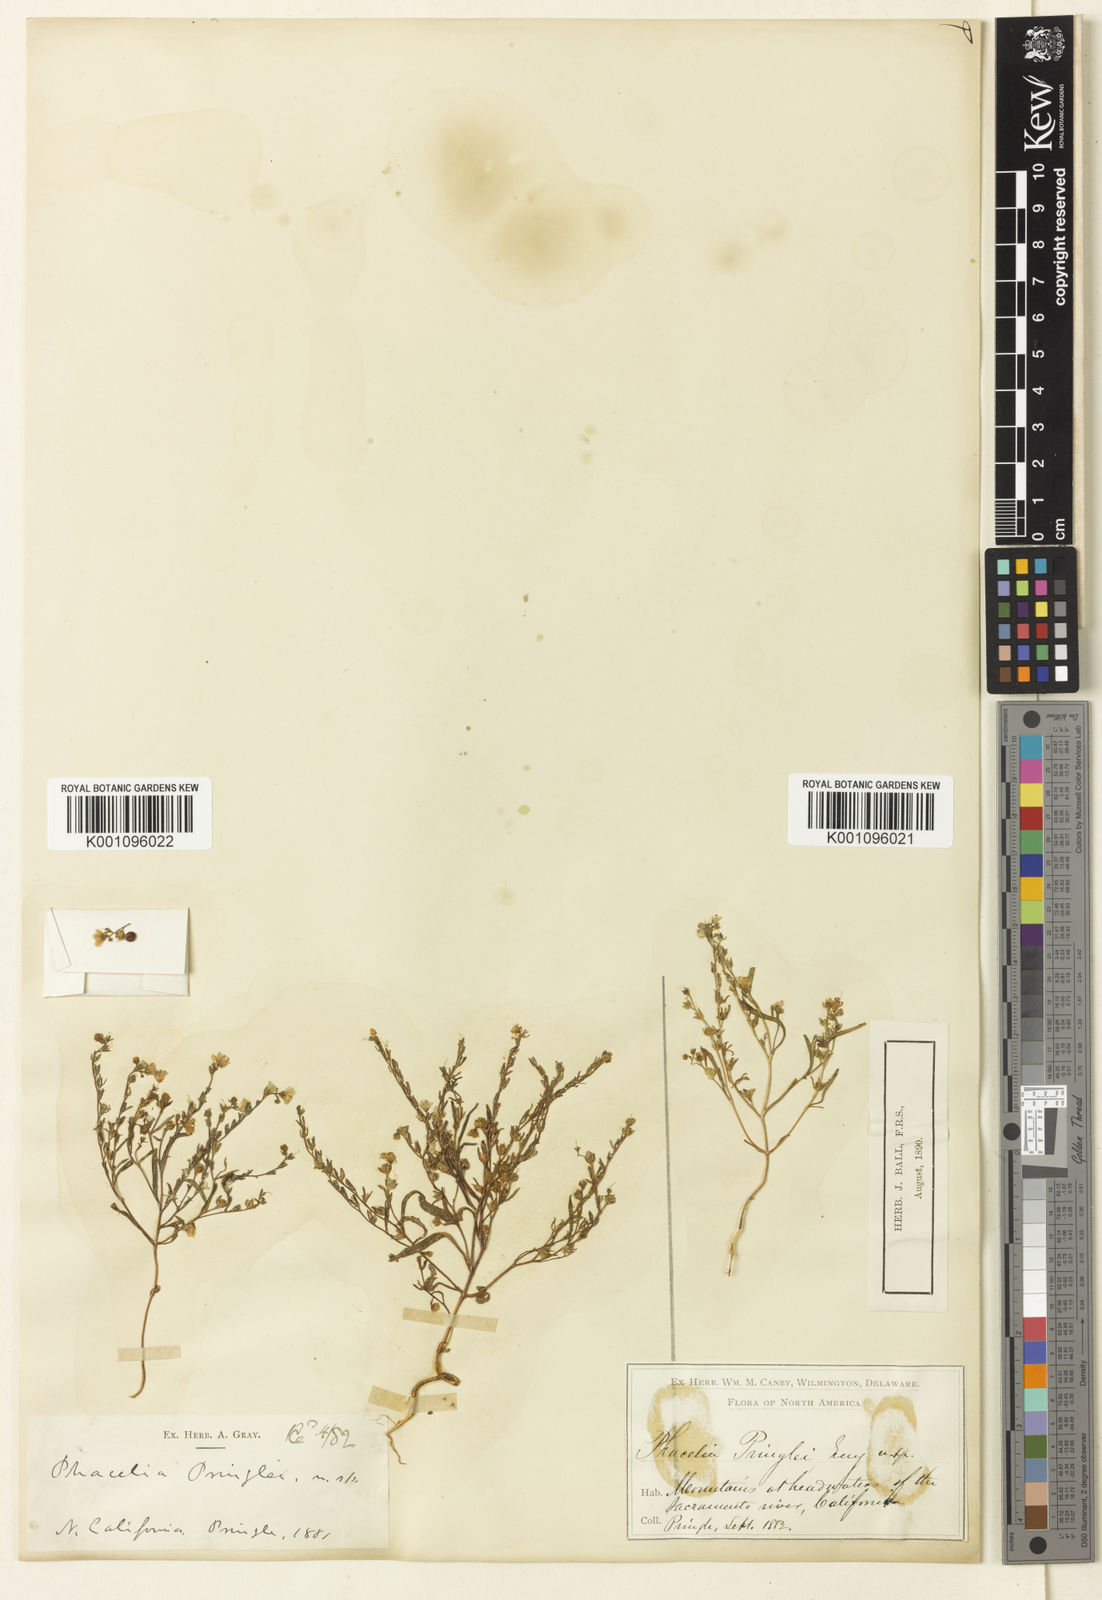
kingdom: Plantae
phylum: Tracheophyta
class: Magnoliopsida
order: Boraginales
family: Hydrophyllaceae
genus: Phacelia
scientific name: Phacelia pringlei
